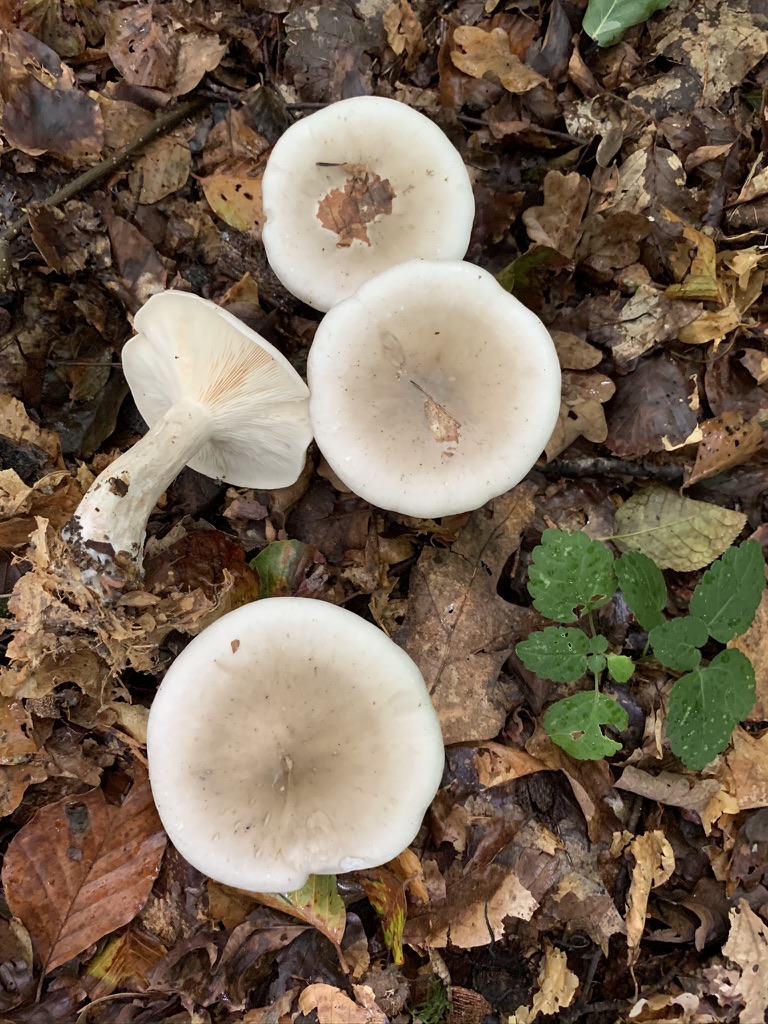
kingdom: Fungi
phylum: Basidiomycota
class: Agaricomycetes
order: Agaricales
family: Tricholomataceae
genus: Clitocybe
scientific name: Clitocybe nebularis
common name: tåge-tragthat
